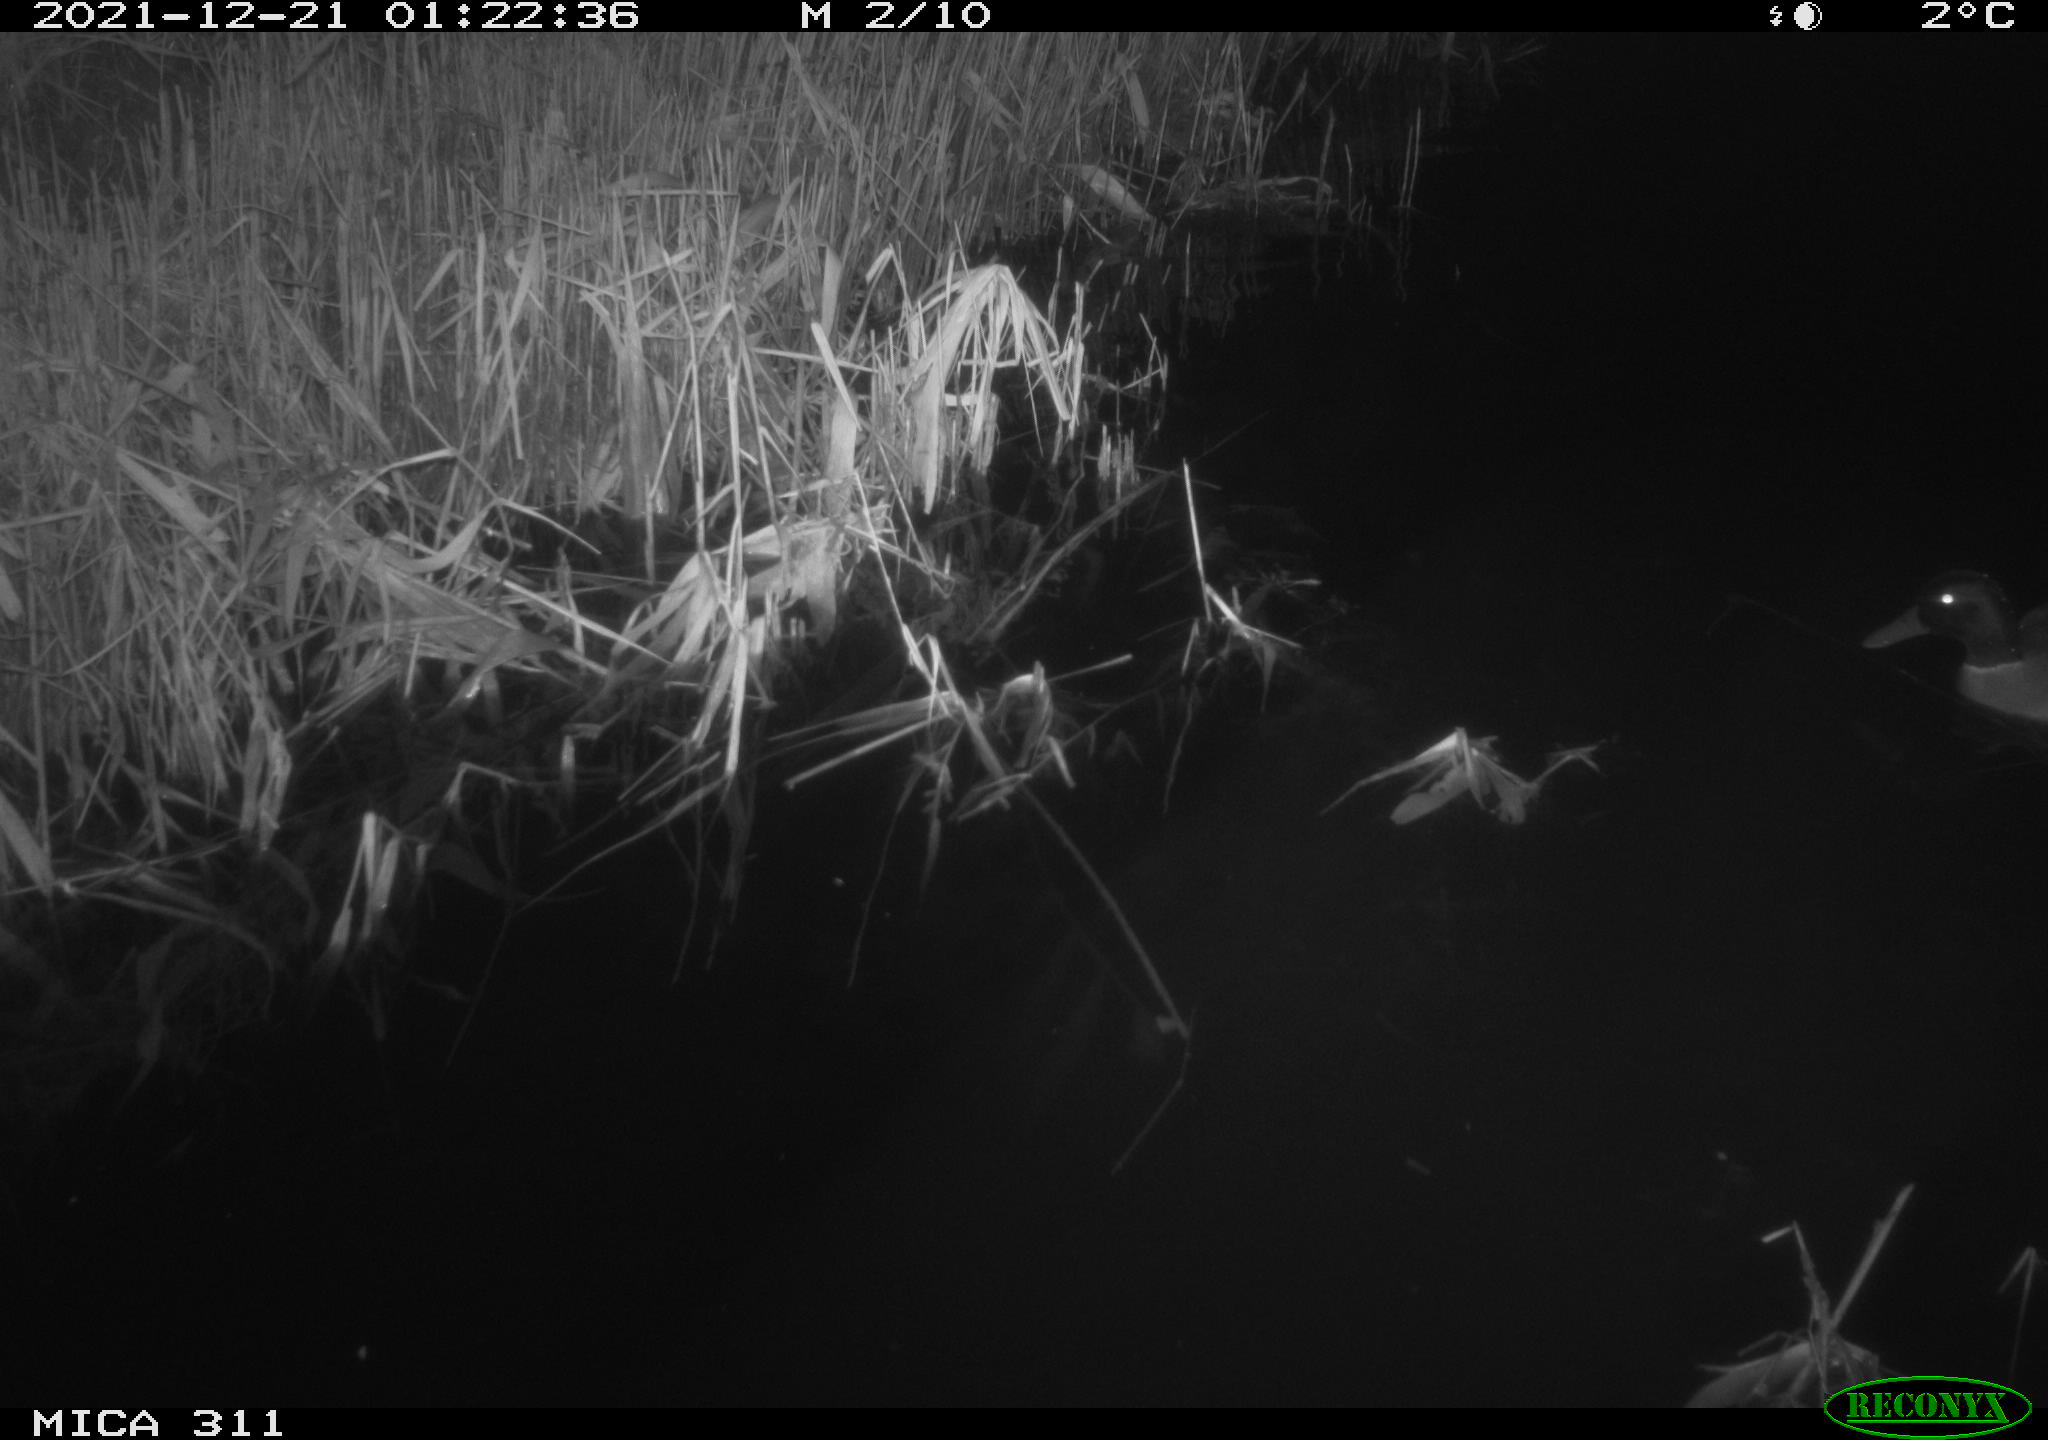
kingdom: Animalia
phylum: Chordata
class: Aves
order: Anseriformes
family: Anatidae
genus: Anas
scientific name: Anas platyrhynchos
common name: Mallard
